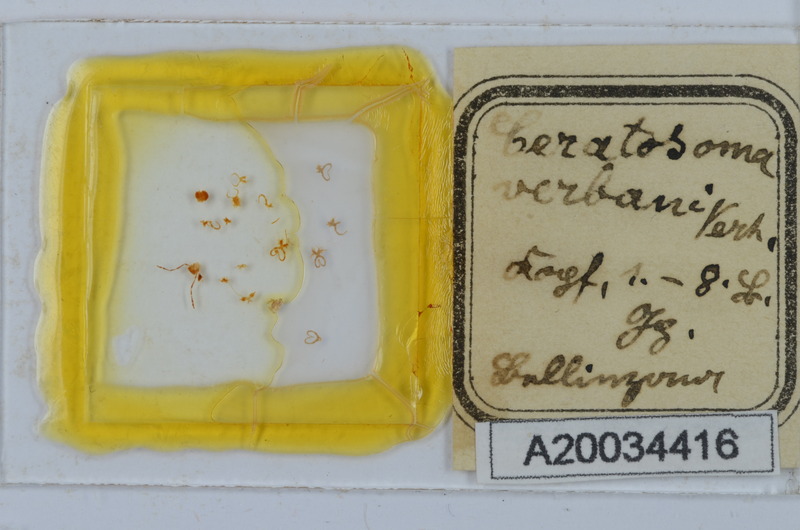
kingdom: Animalia
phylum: Arthropoda
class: Diplopoda
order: Chordeumatida
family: Craspedosomatidae
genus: Bomogona
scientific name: Bomogona helvetica
